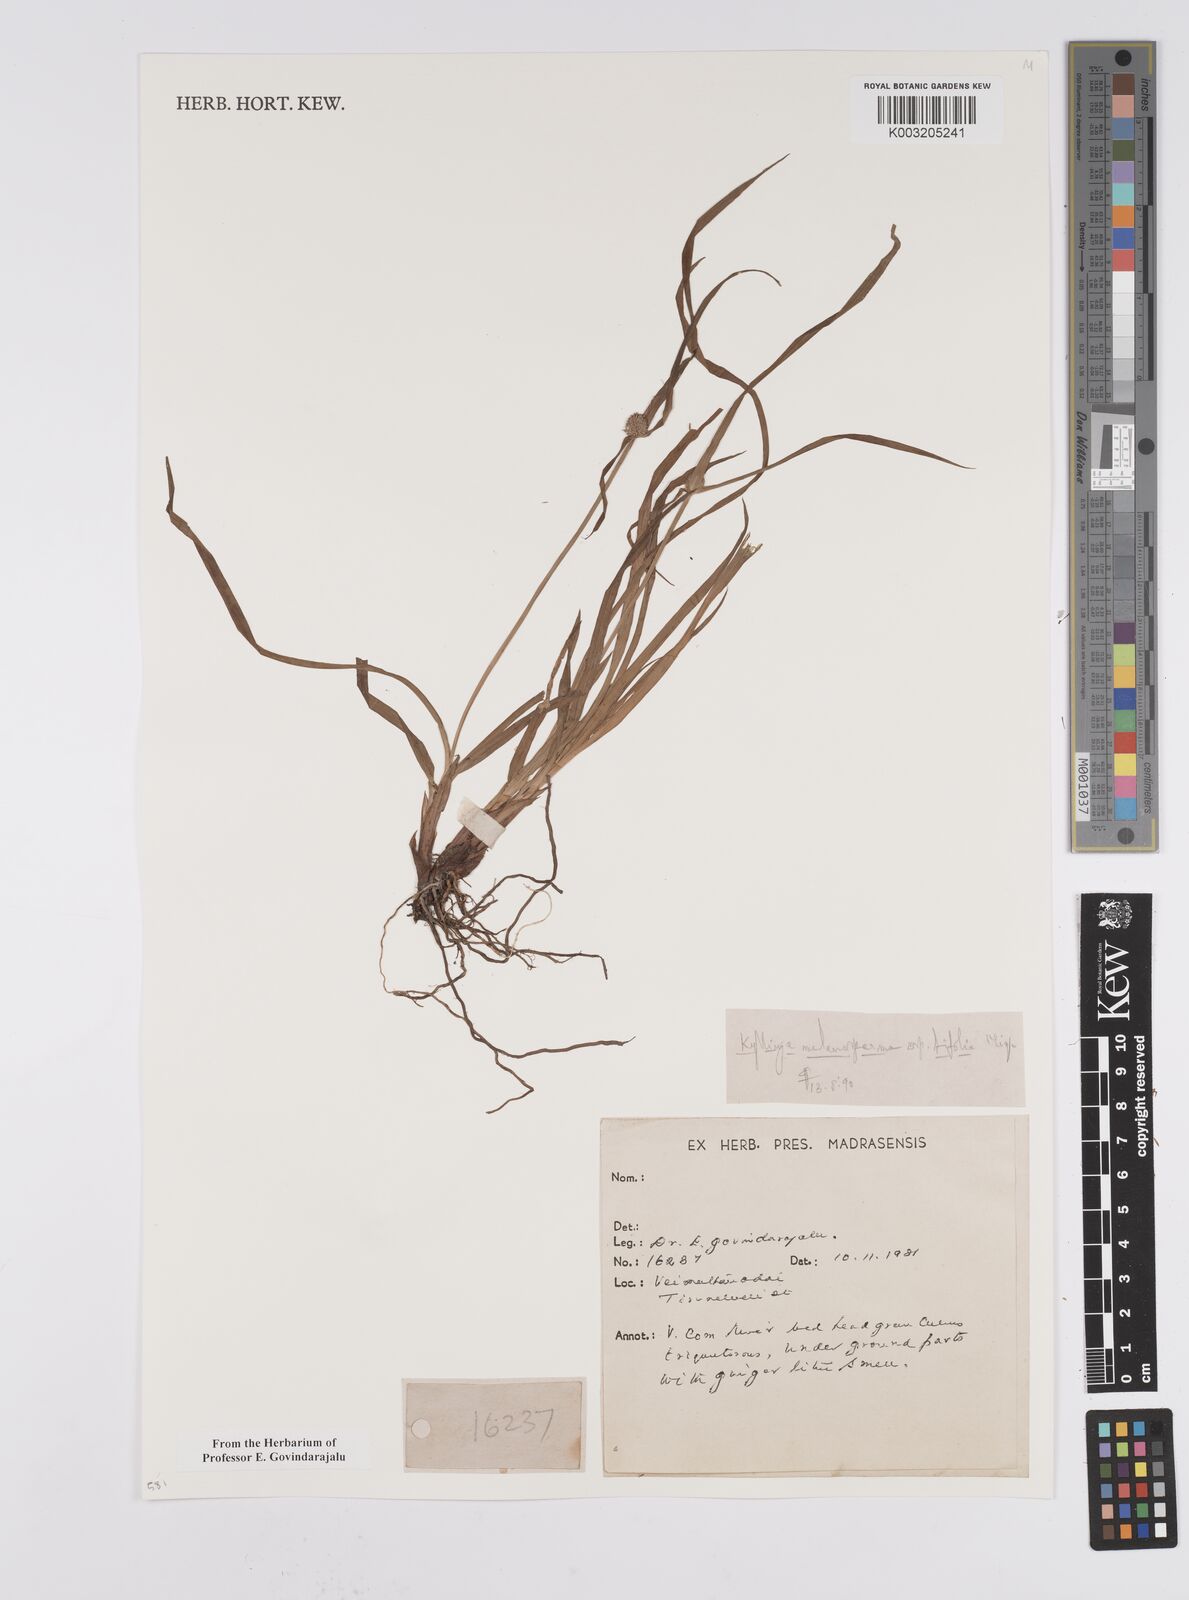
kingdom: Plantae
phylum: Tracheophyta
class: Liliopsida
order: Poales
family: Cyperaceae
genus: Cyperus
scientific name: Cyperus melanospermus
